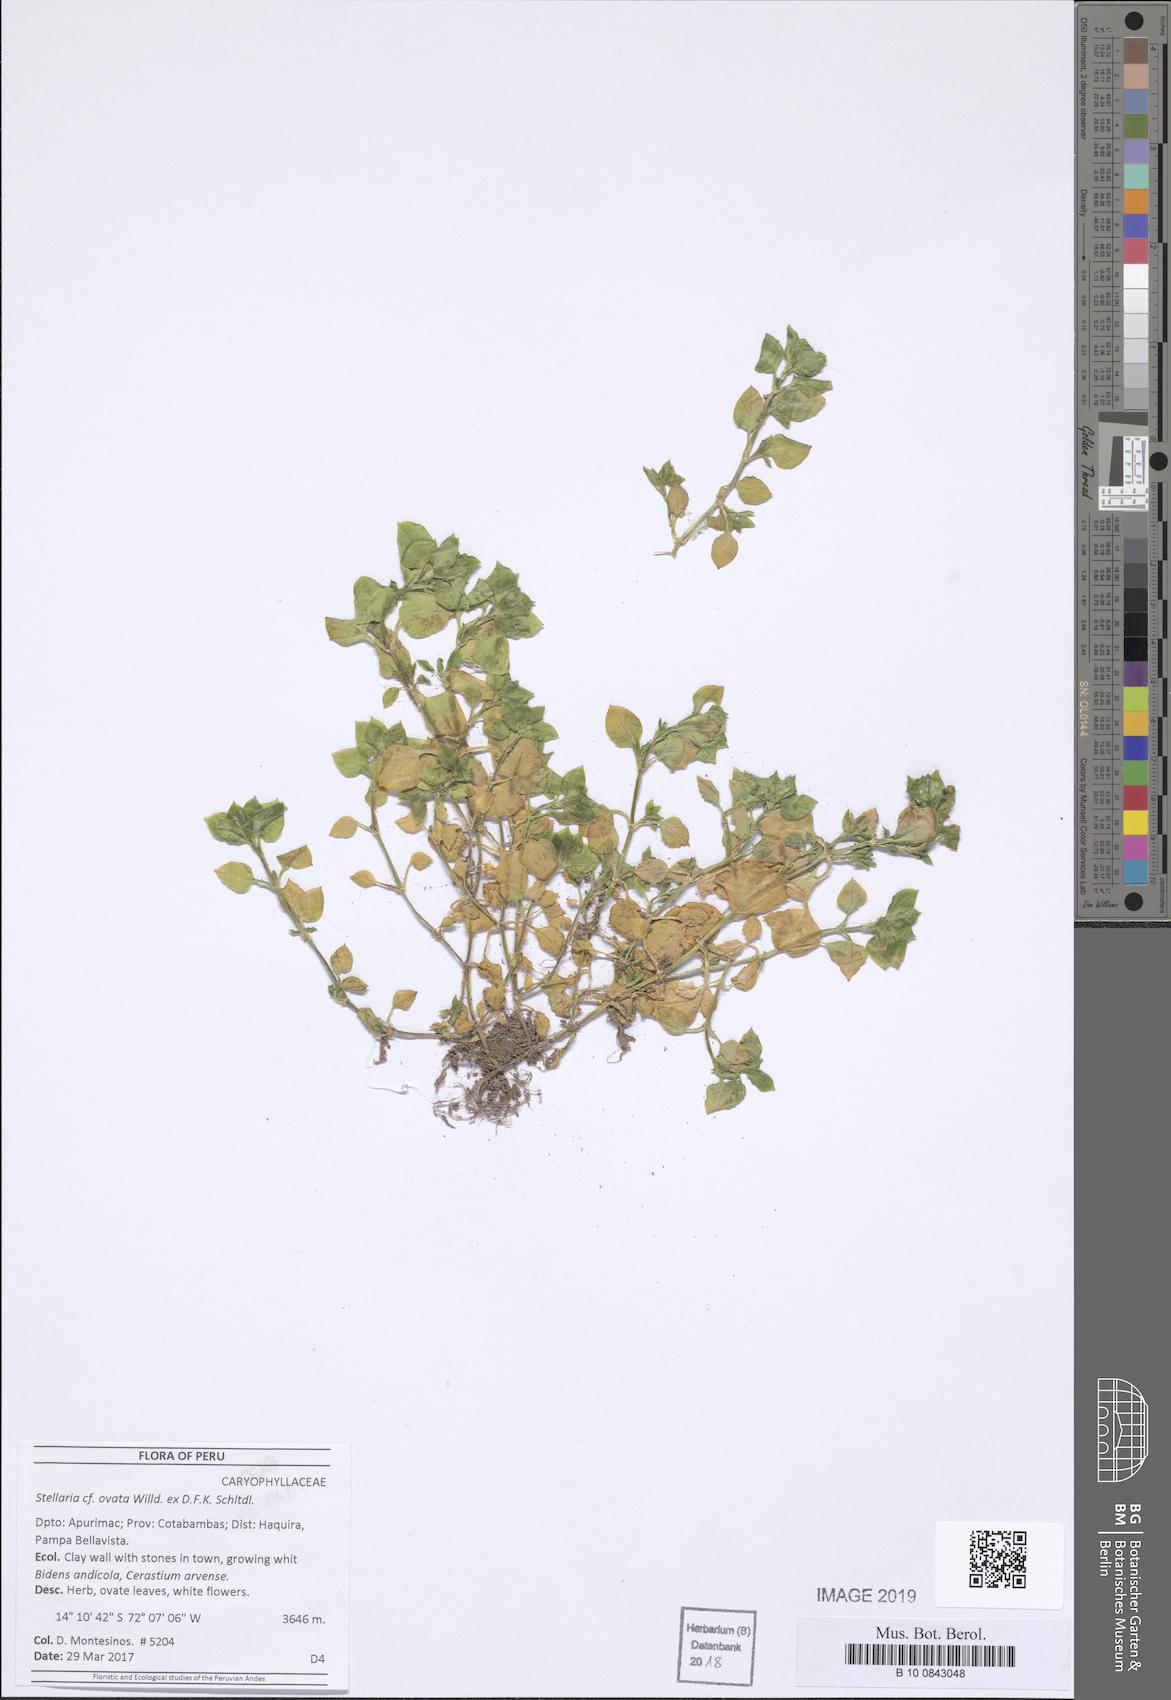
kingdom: Plantae
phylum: Tracheophyta
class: Magnoliopsida
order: Caryophyllales
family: Caryophyllaceae
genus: Stellaria
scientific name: Stellaria ovata
